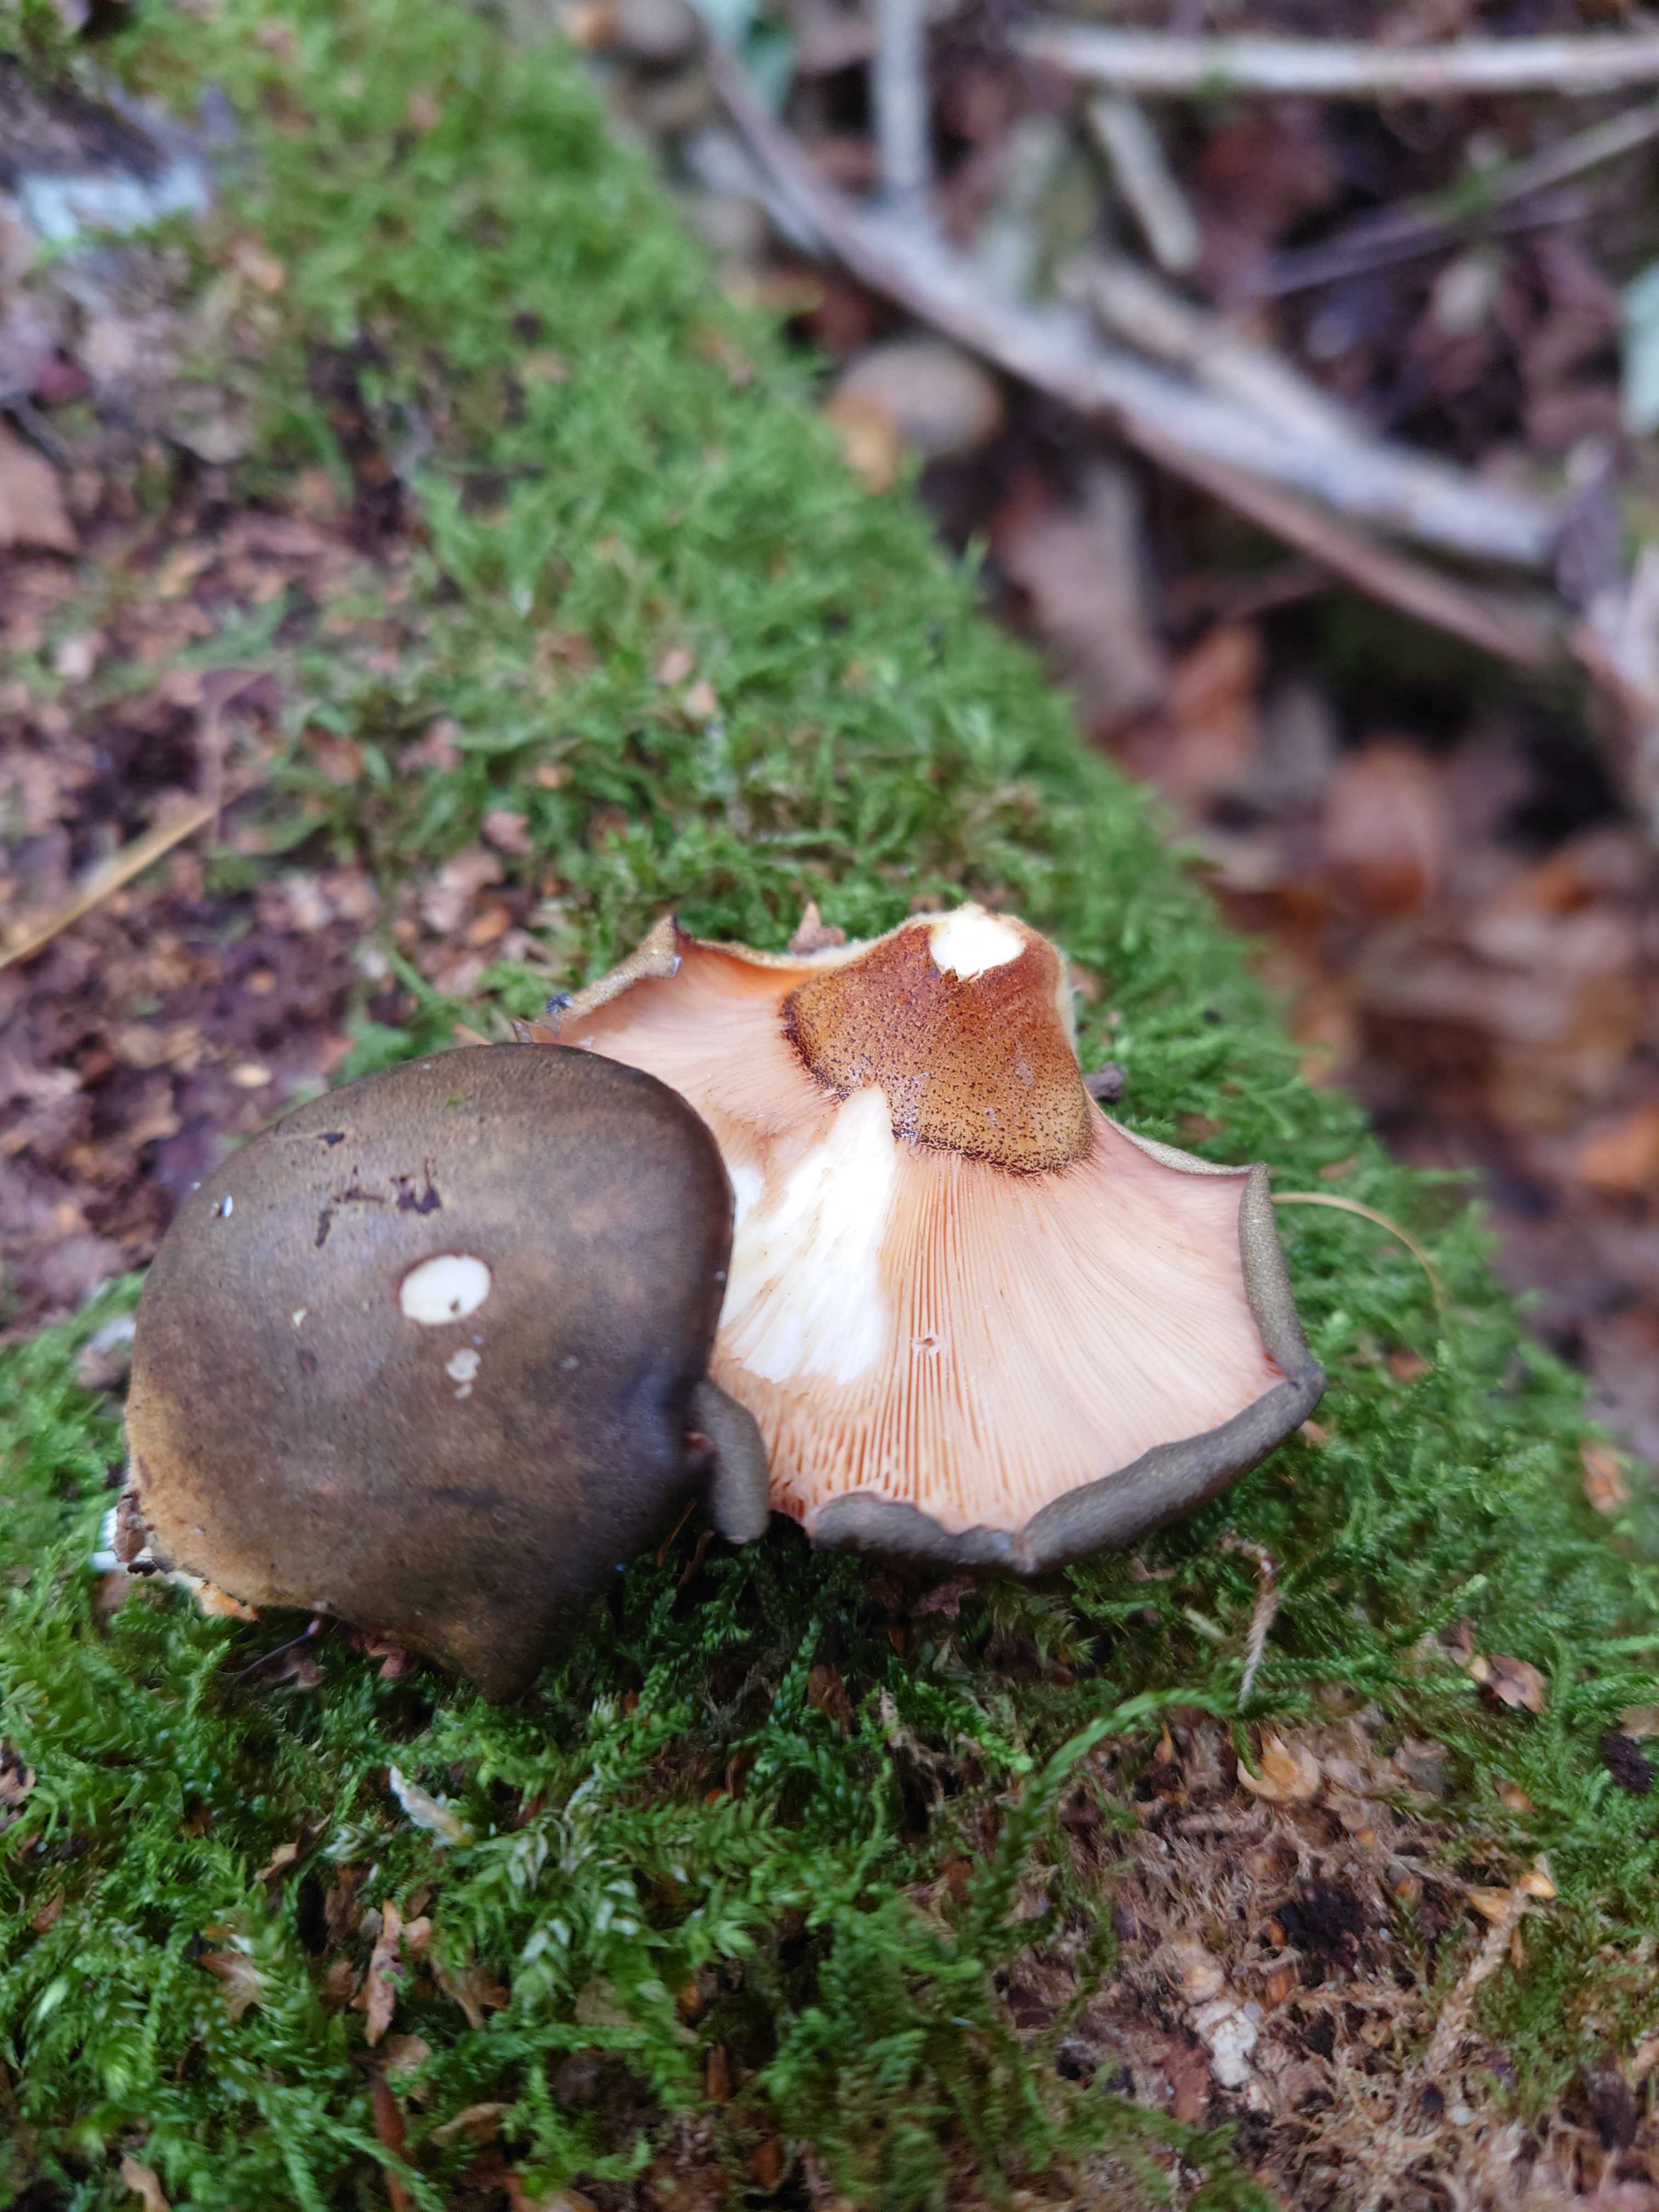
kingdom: Fungi
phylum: Basidiomycota
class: Agaricomycetes
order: Agaricales
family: Sarcomyxaceae
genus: Sarcomyxa
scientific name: Sarcomyxa serotina
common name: gummihat
